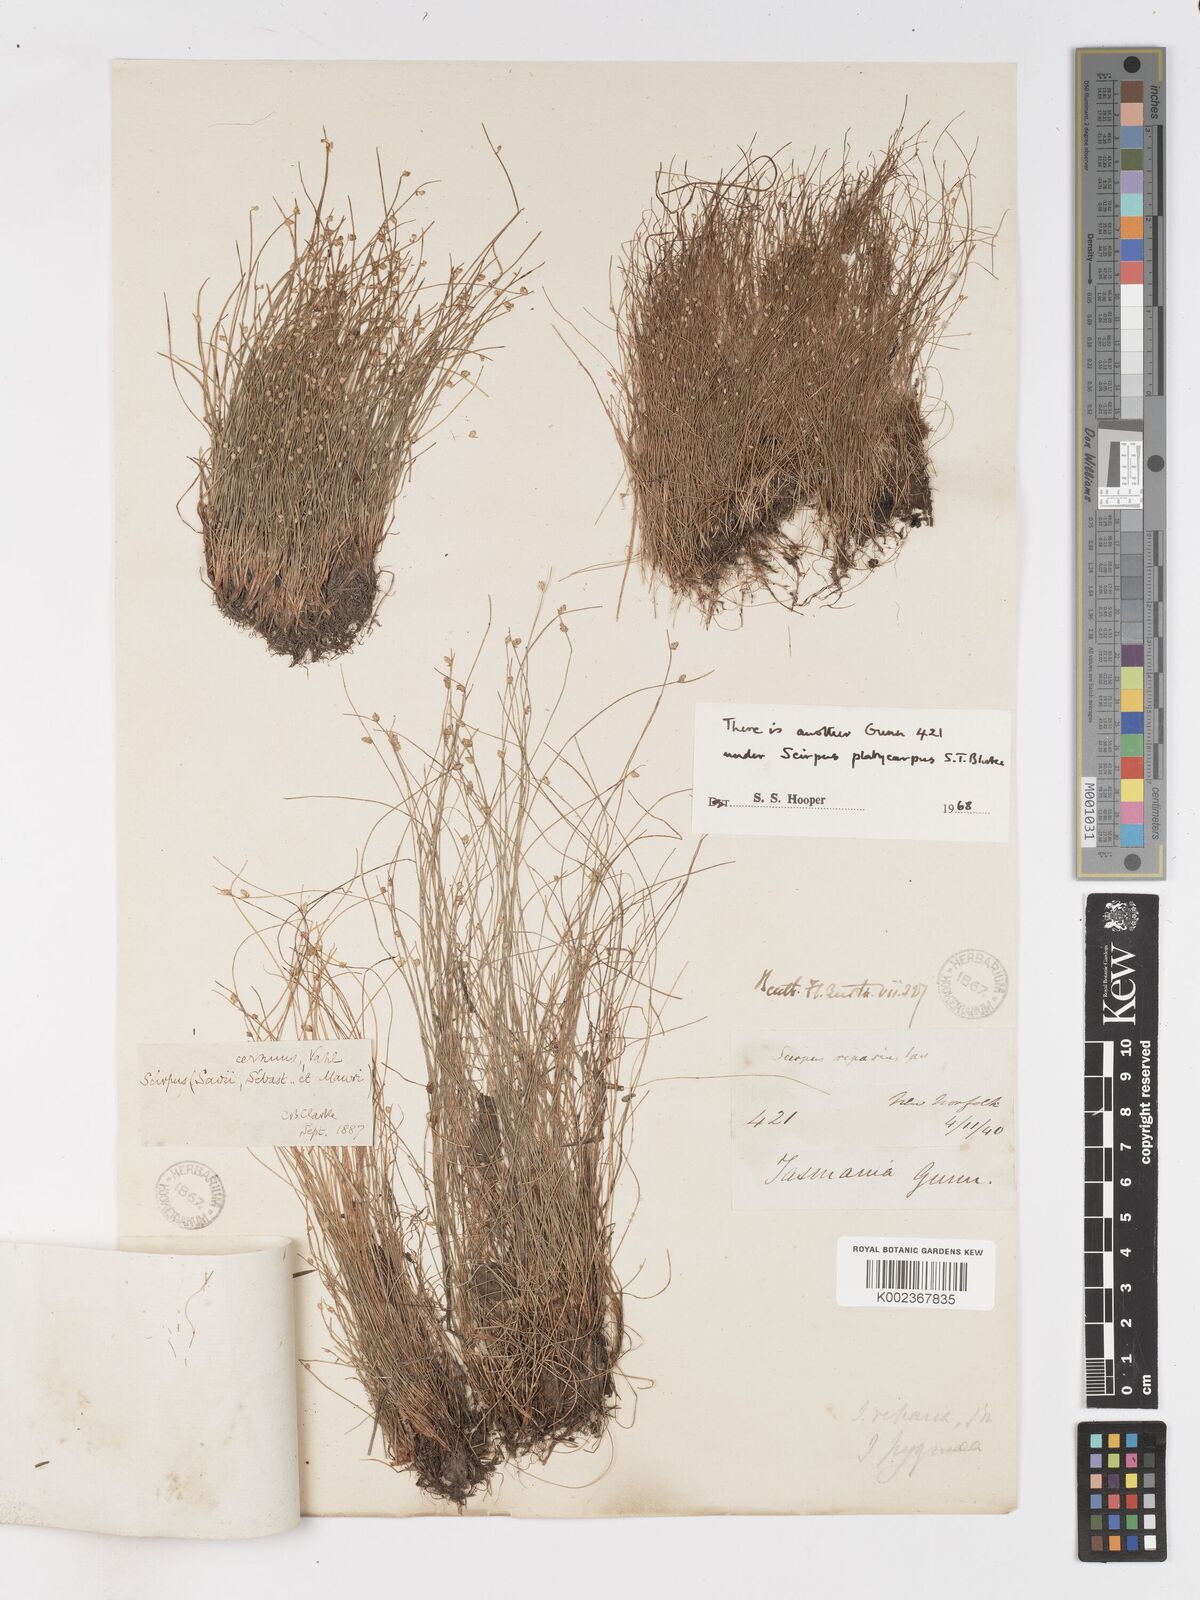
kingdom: Plantae
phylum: Tracheophyta
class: Liliopsida
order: Poales
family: Cyperaceae
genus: Isolepis
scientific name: Isolepis cernua
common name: Slender club-rush
